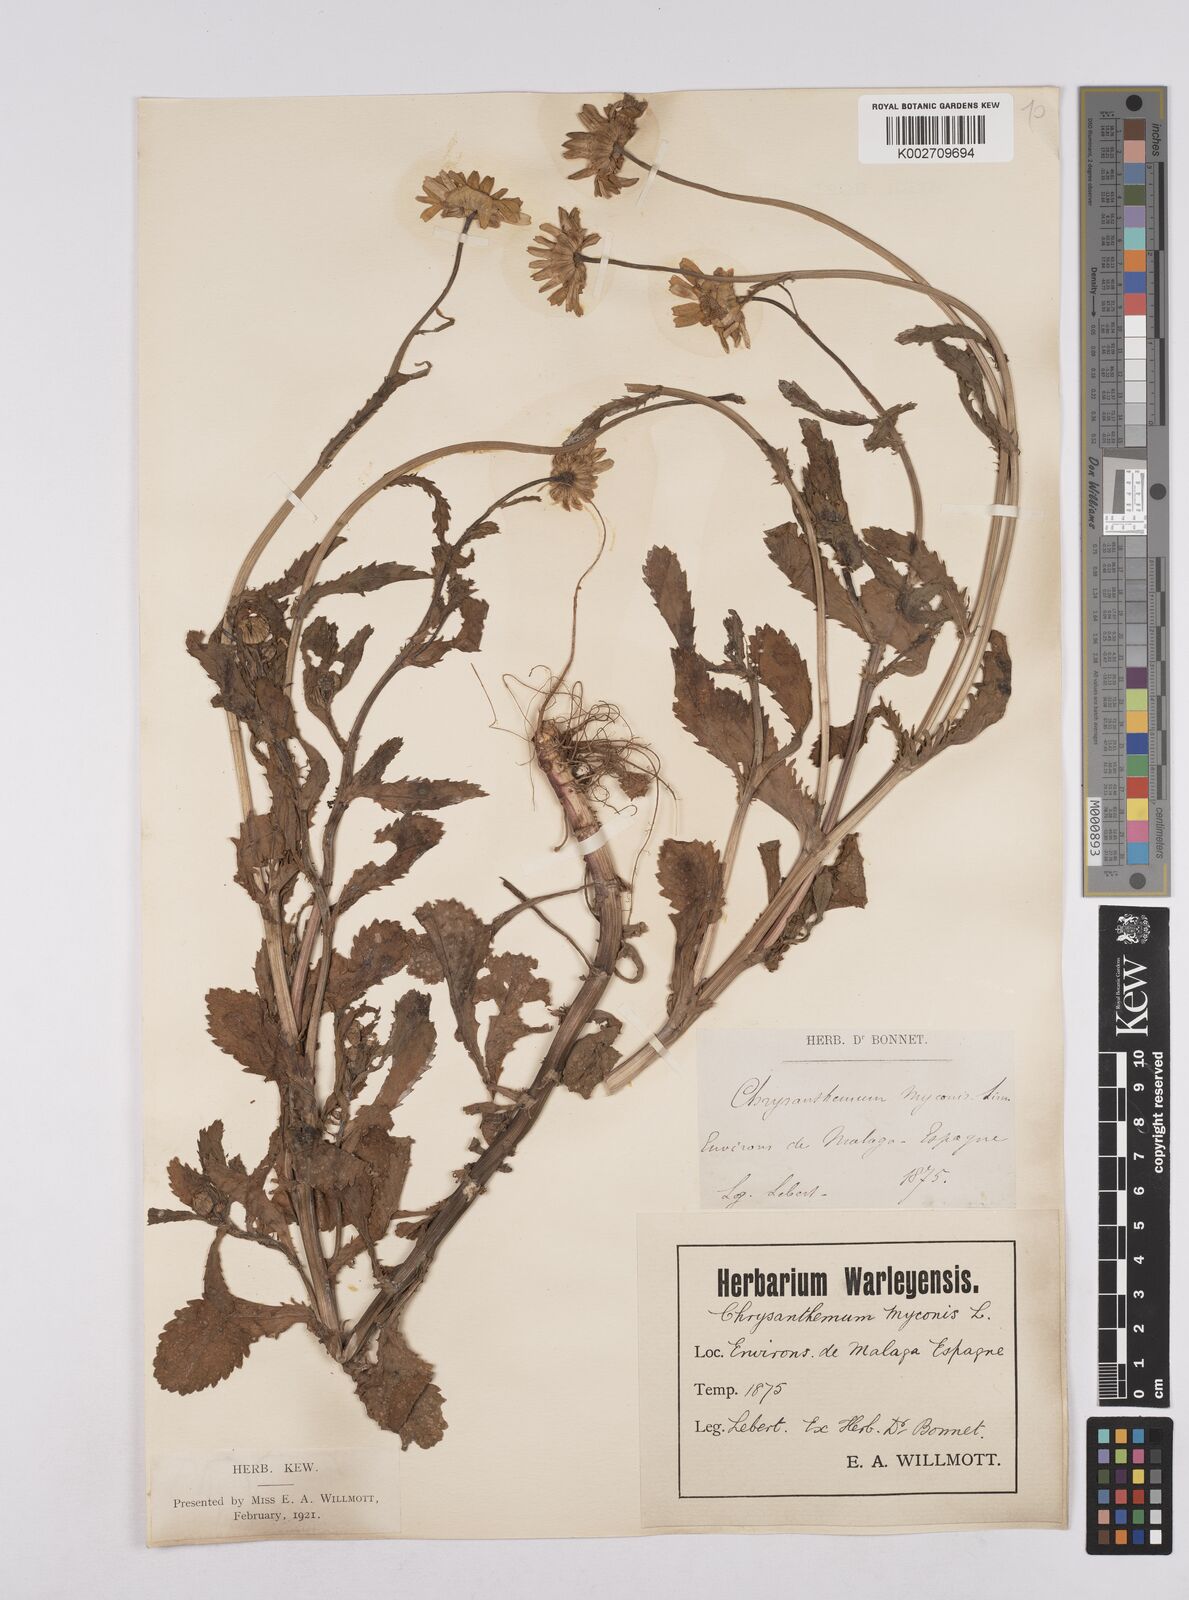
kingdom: Plantae
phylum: Tracheophyta
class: Magnoliopsida
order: Asterales
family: Asteraceae
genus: Coleostephus
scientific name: Coleostephus myconis
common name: Mediterranean marigold
